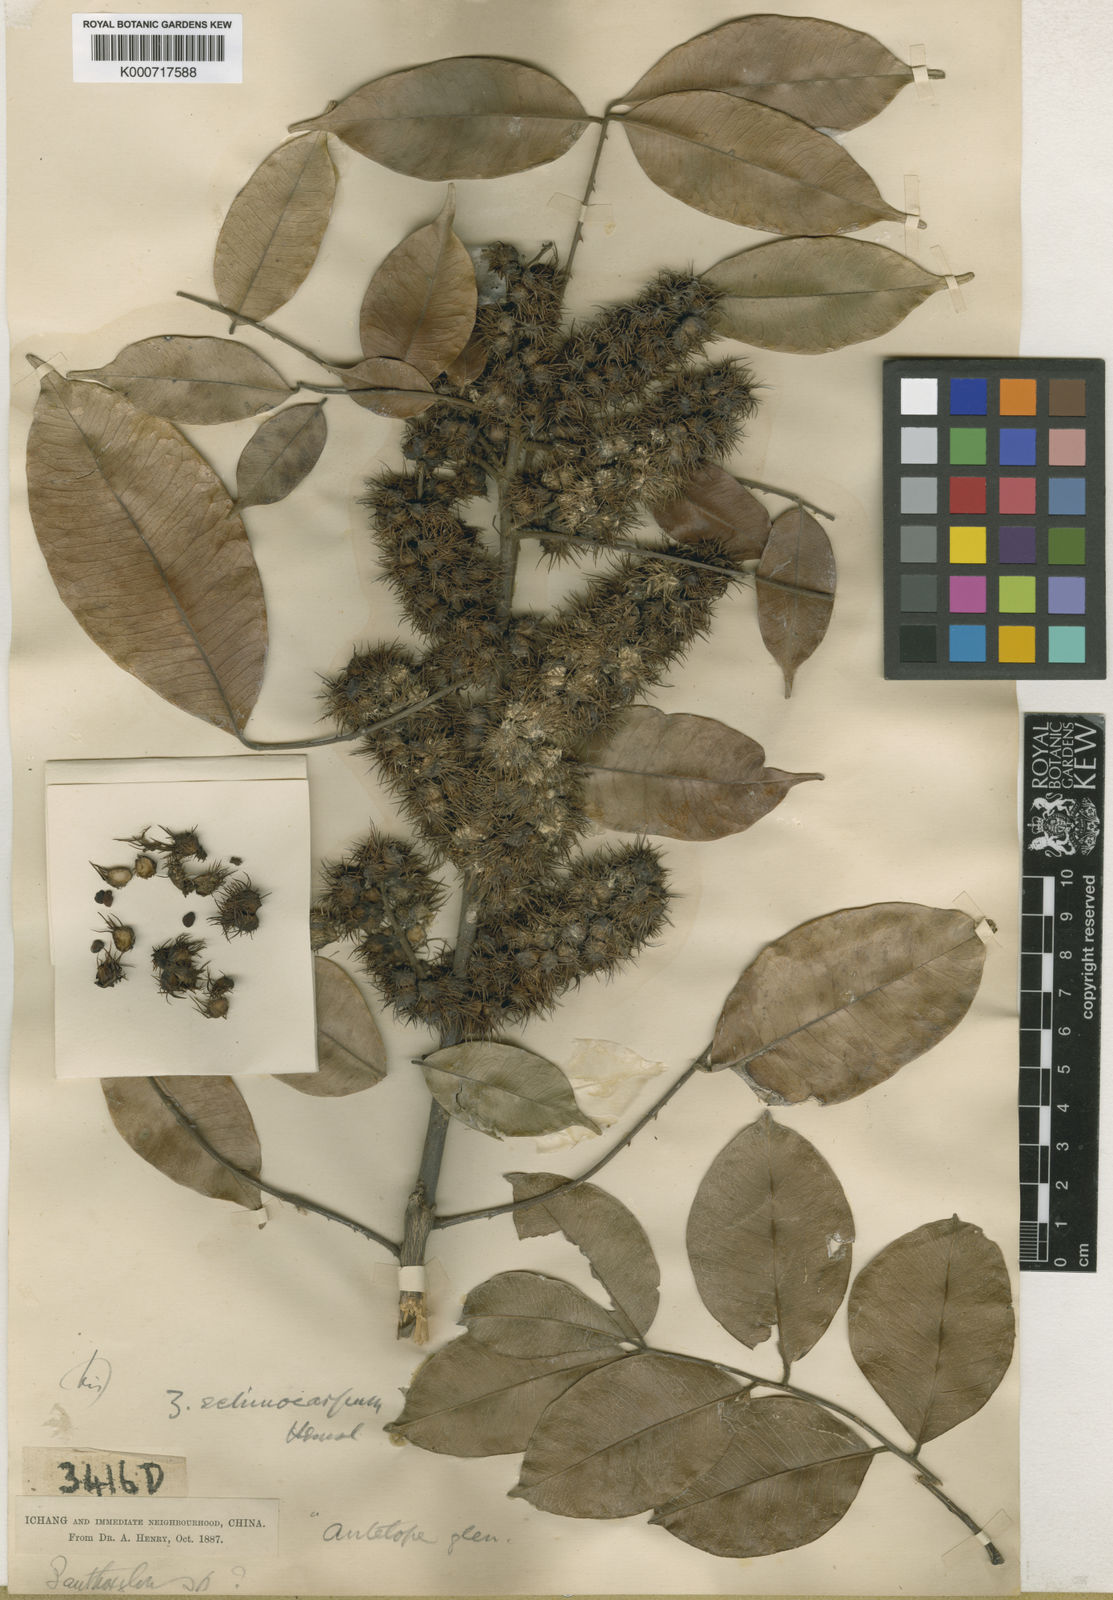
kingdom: Plantae
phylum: Tracheophyta
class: Magnoliopsida
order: Sapindales
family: Rutaceae
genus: Zanthoxylum
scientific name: Zanthoxylum echinocarpum
